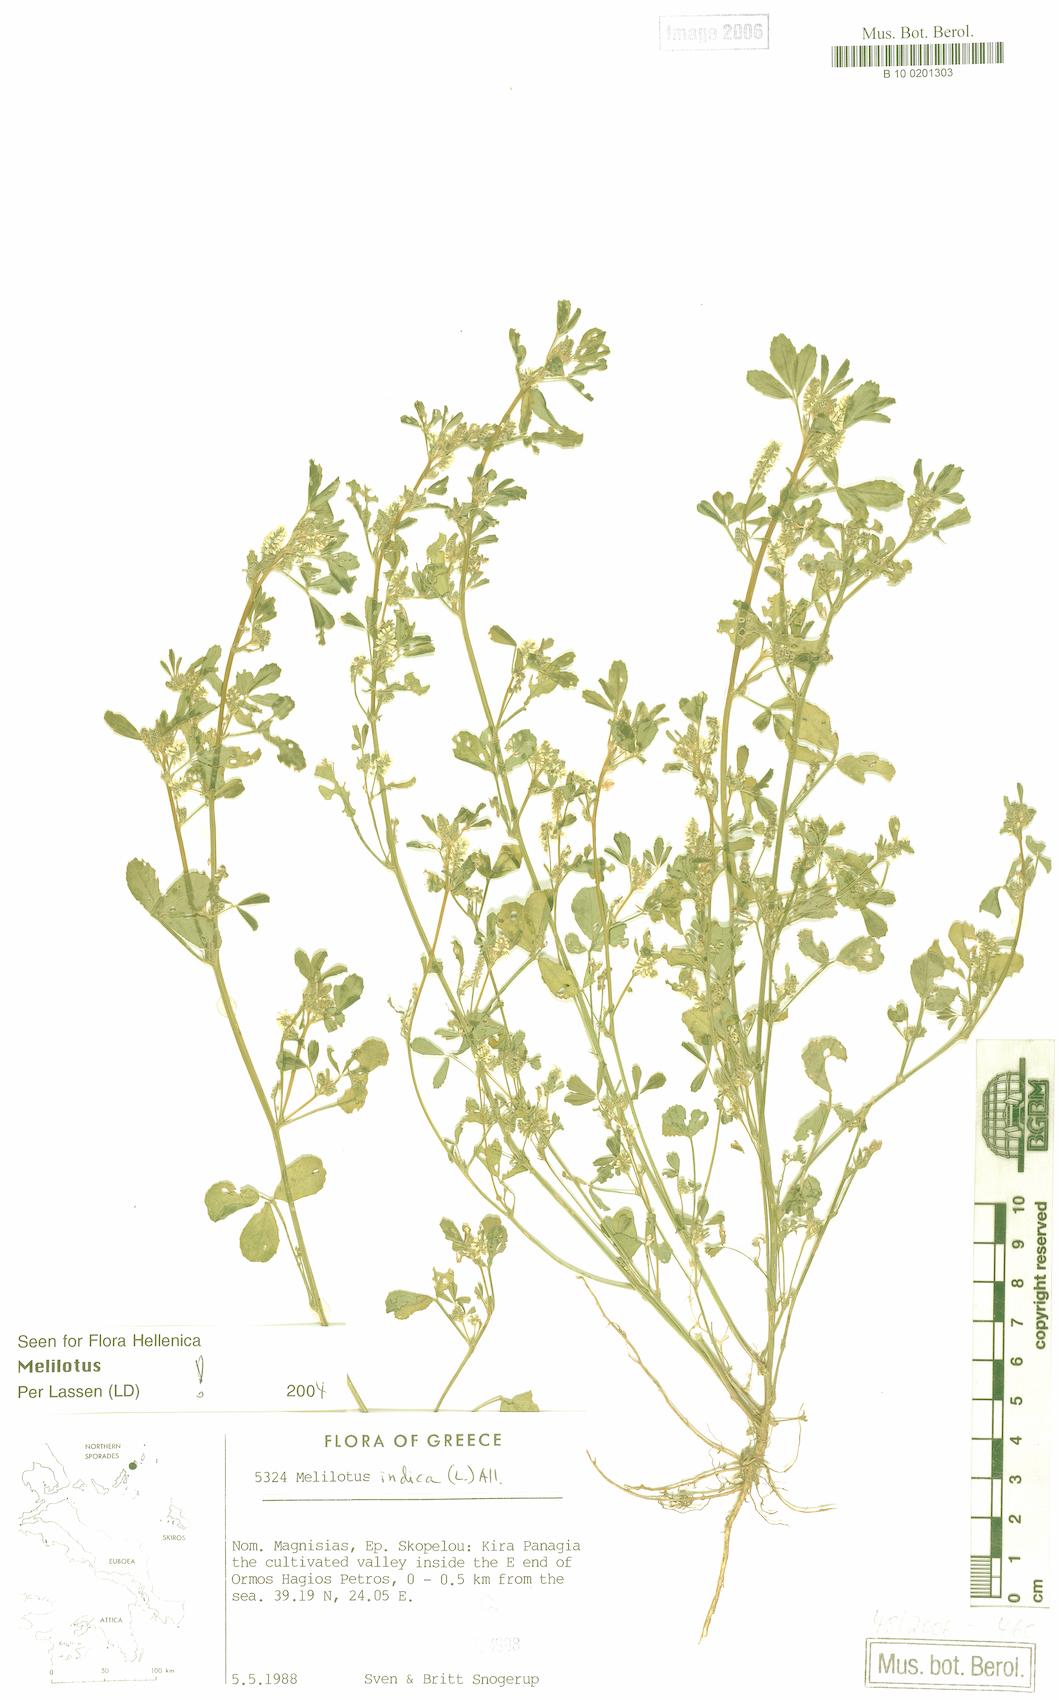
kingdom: Plantae
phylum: Tracheophyta
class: Magnoliopsida
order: Fabales
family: Fabaceae
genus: Melilotus
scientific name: Melilotus indicus
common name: Small melilot
